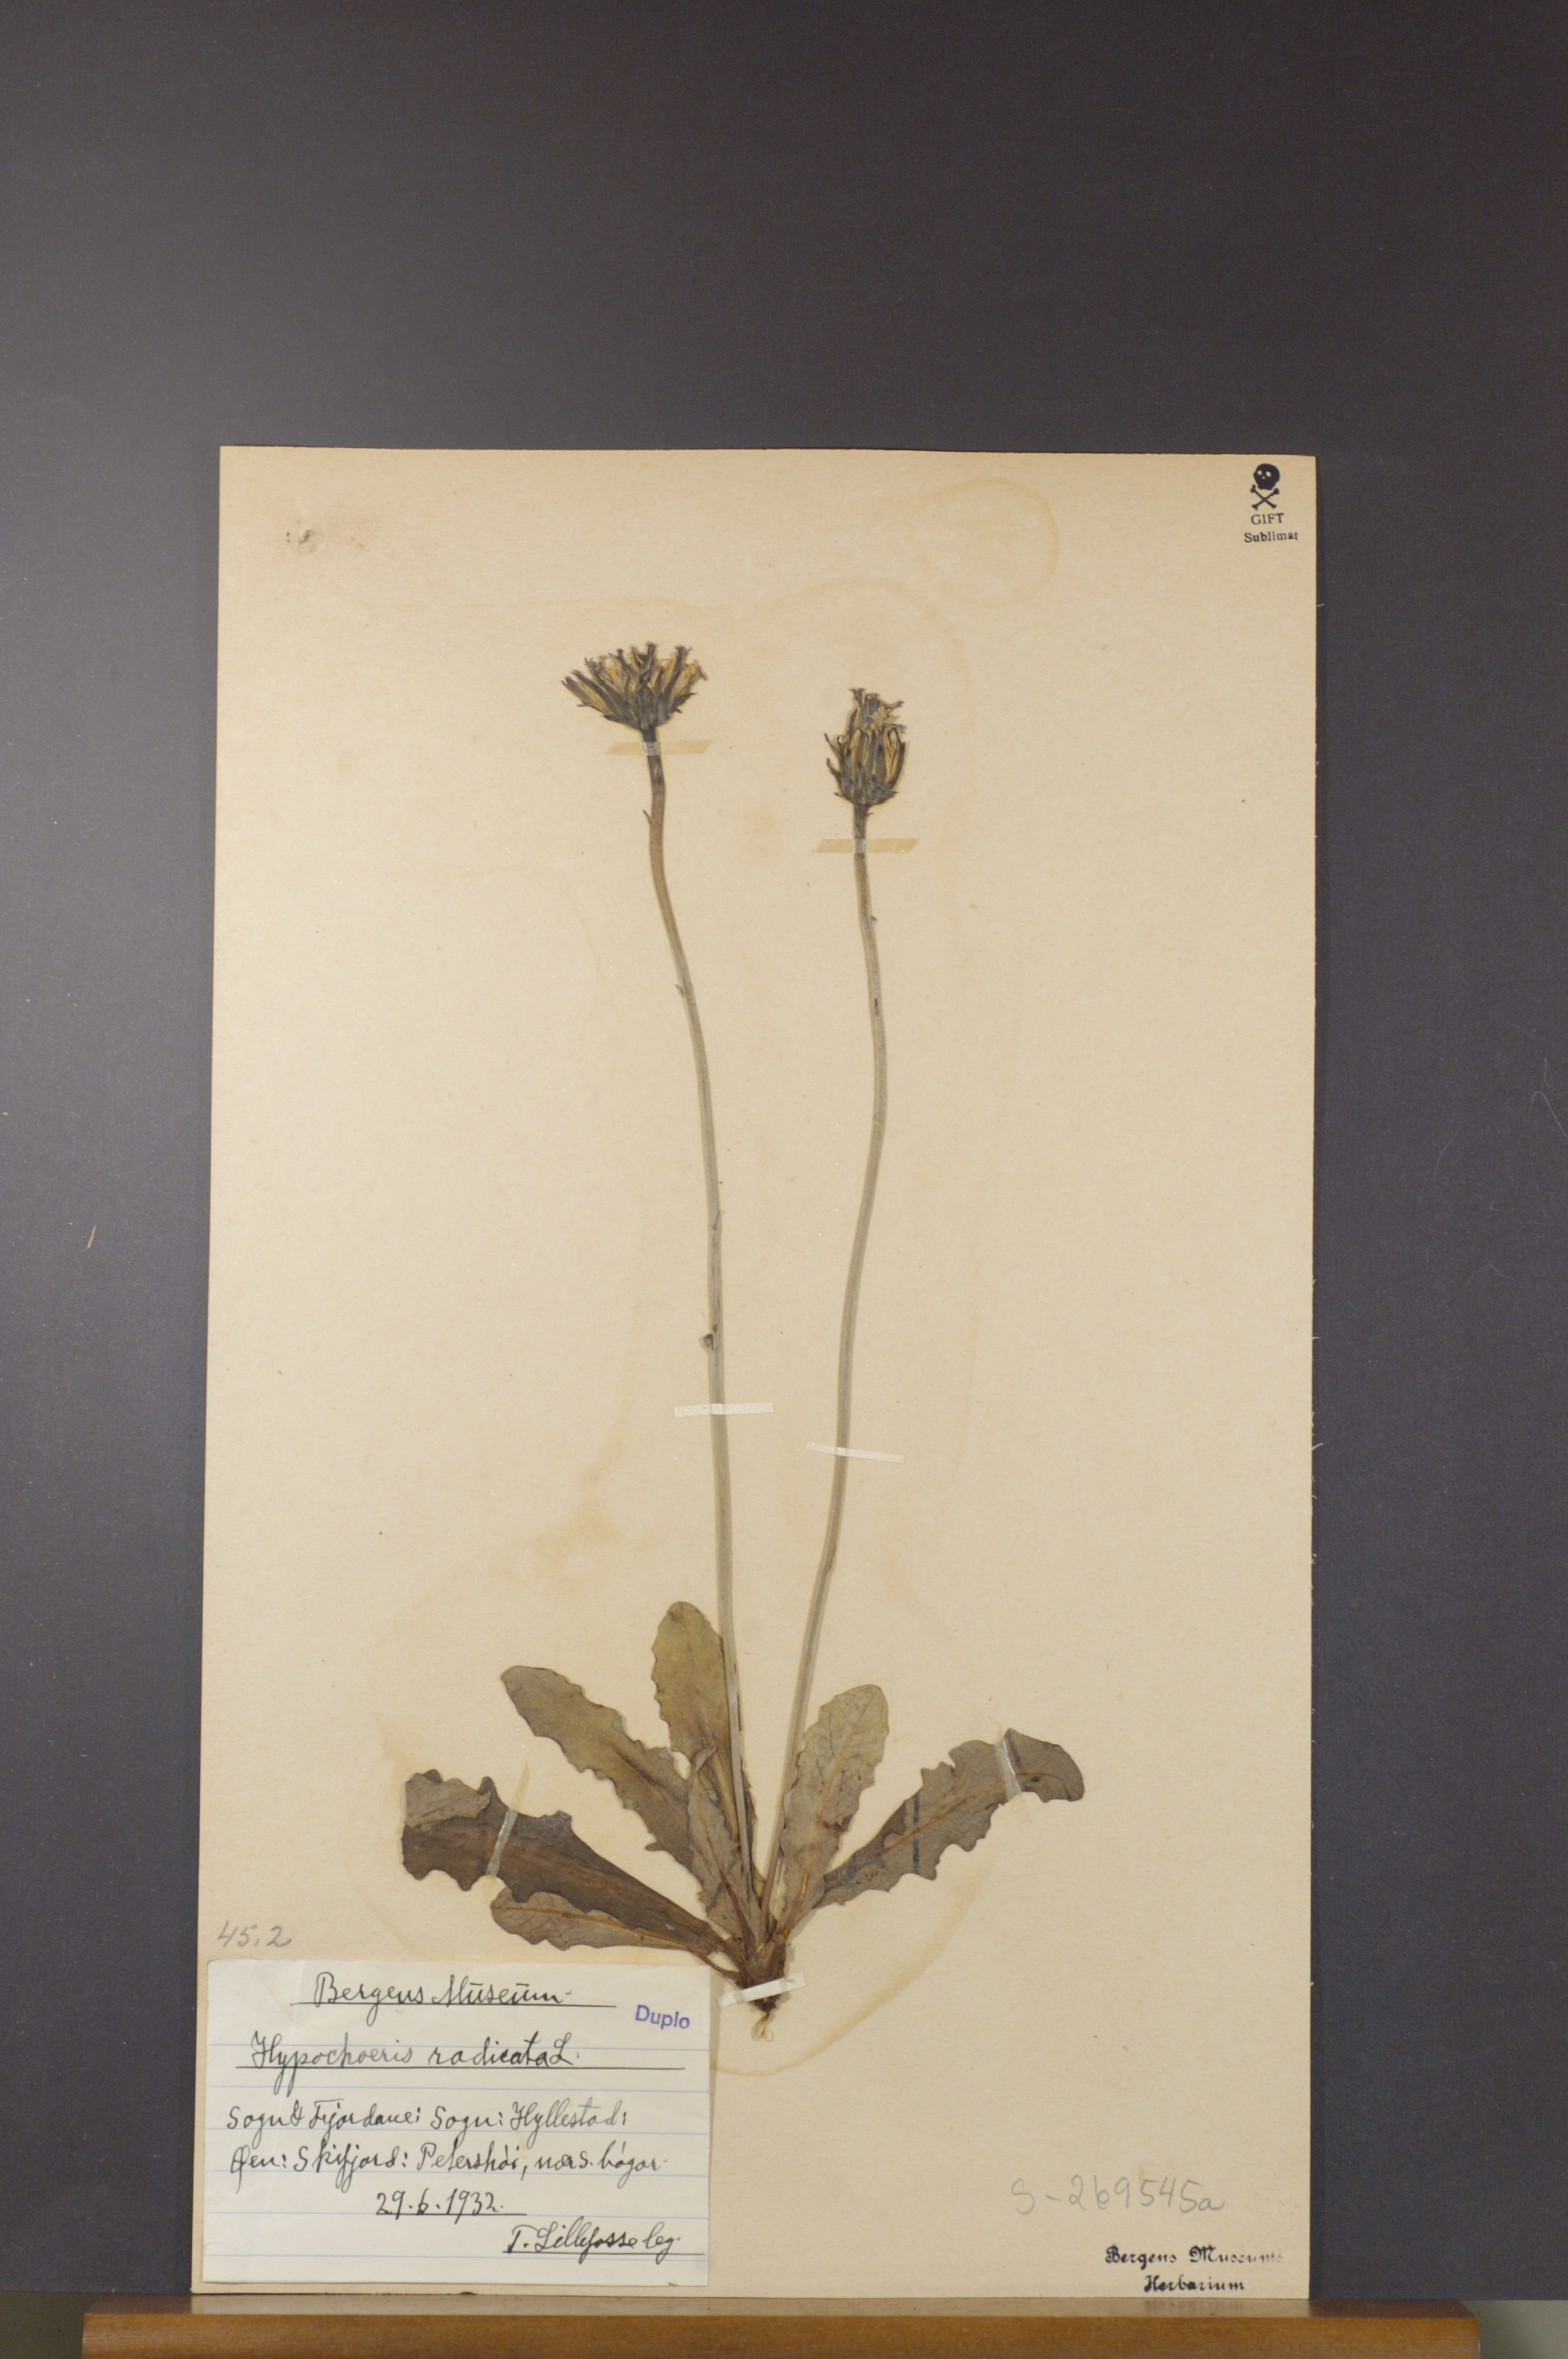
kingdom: Plantae
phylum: Tracheophyta
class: Magnoliopsida
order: Asterales
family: Asteraceae
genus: Hypochaeris
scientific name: Hypochaeris radicata
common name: Flatweed
